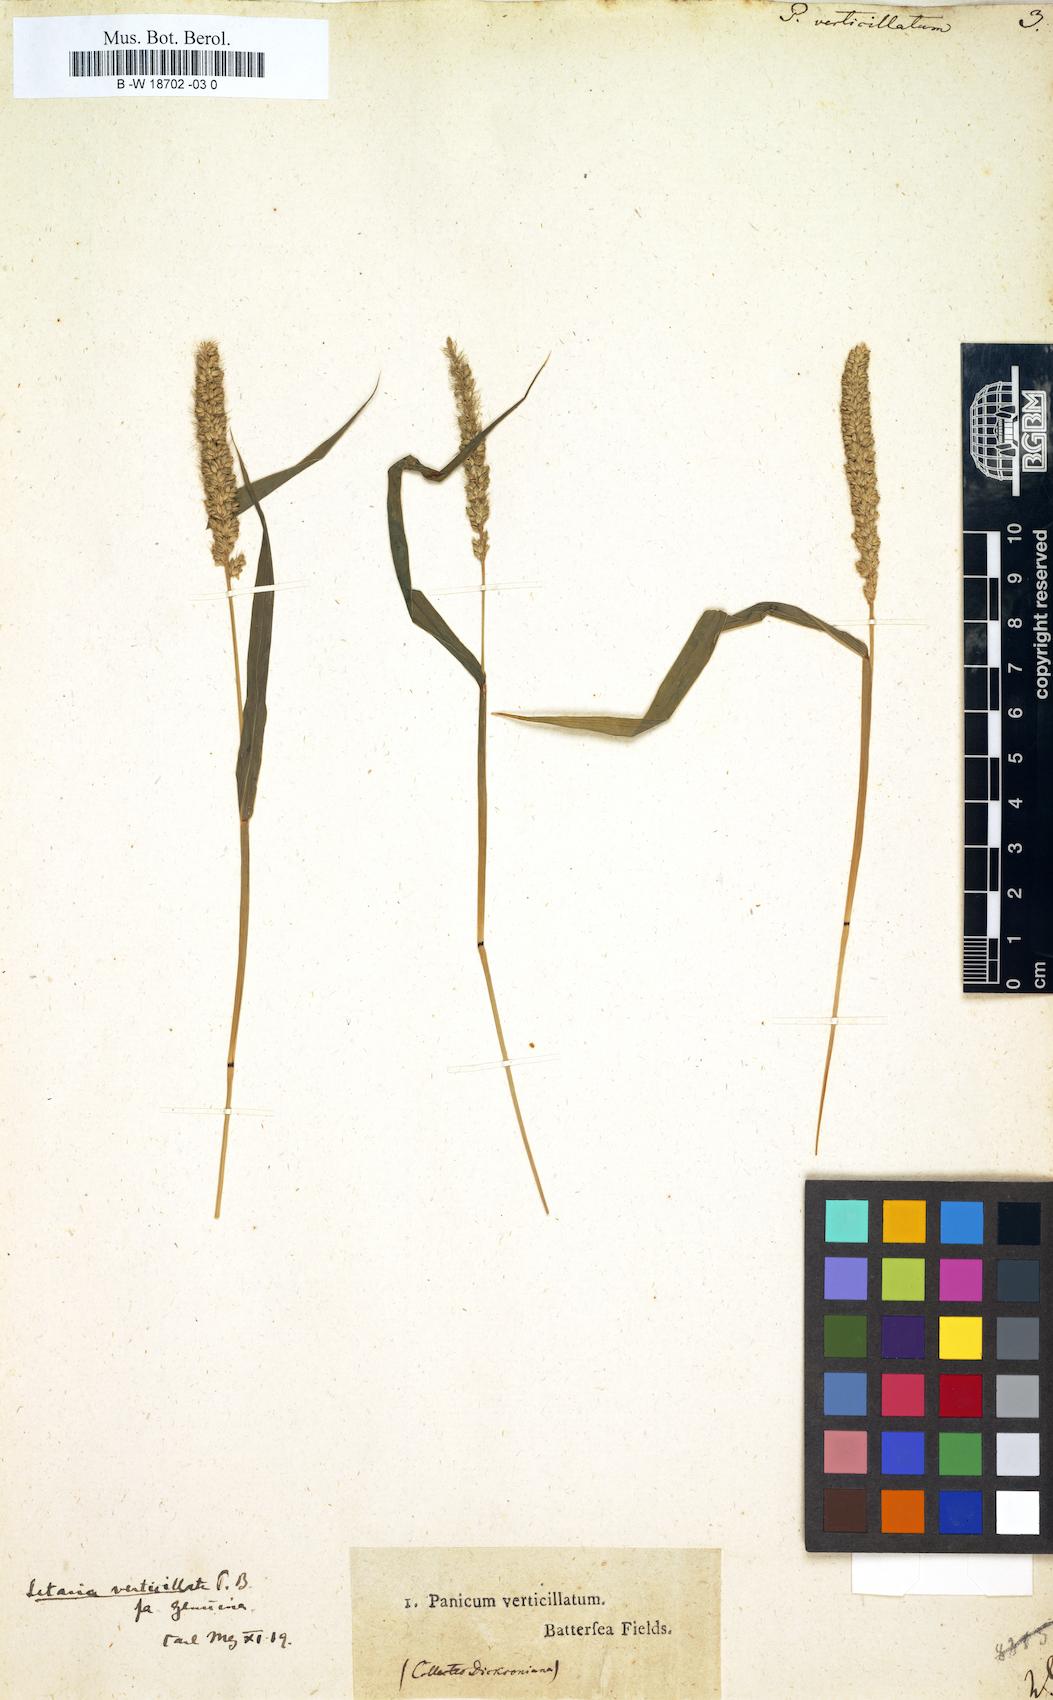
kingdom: Plantae
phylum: Tracheophyta
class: Liliopsida
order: Poales
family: Poaceae
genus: Panicum
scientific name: Panicum verticillatum
